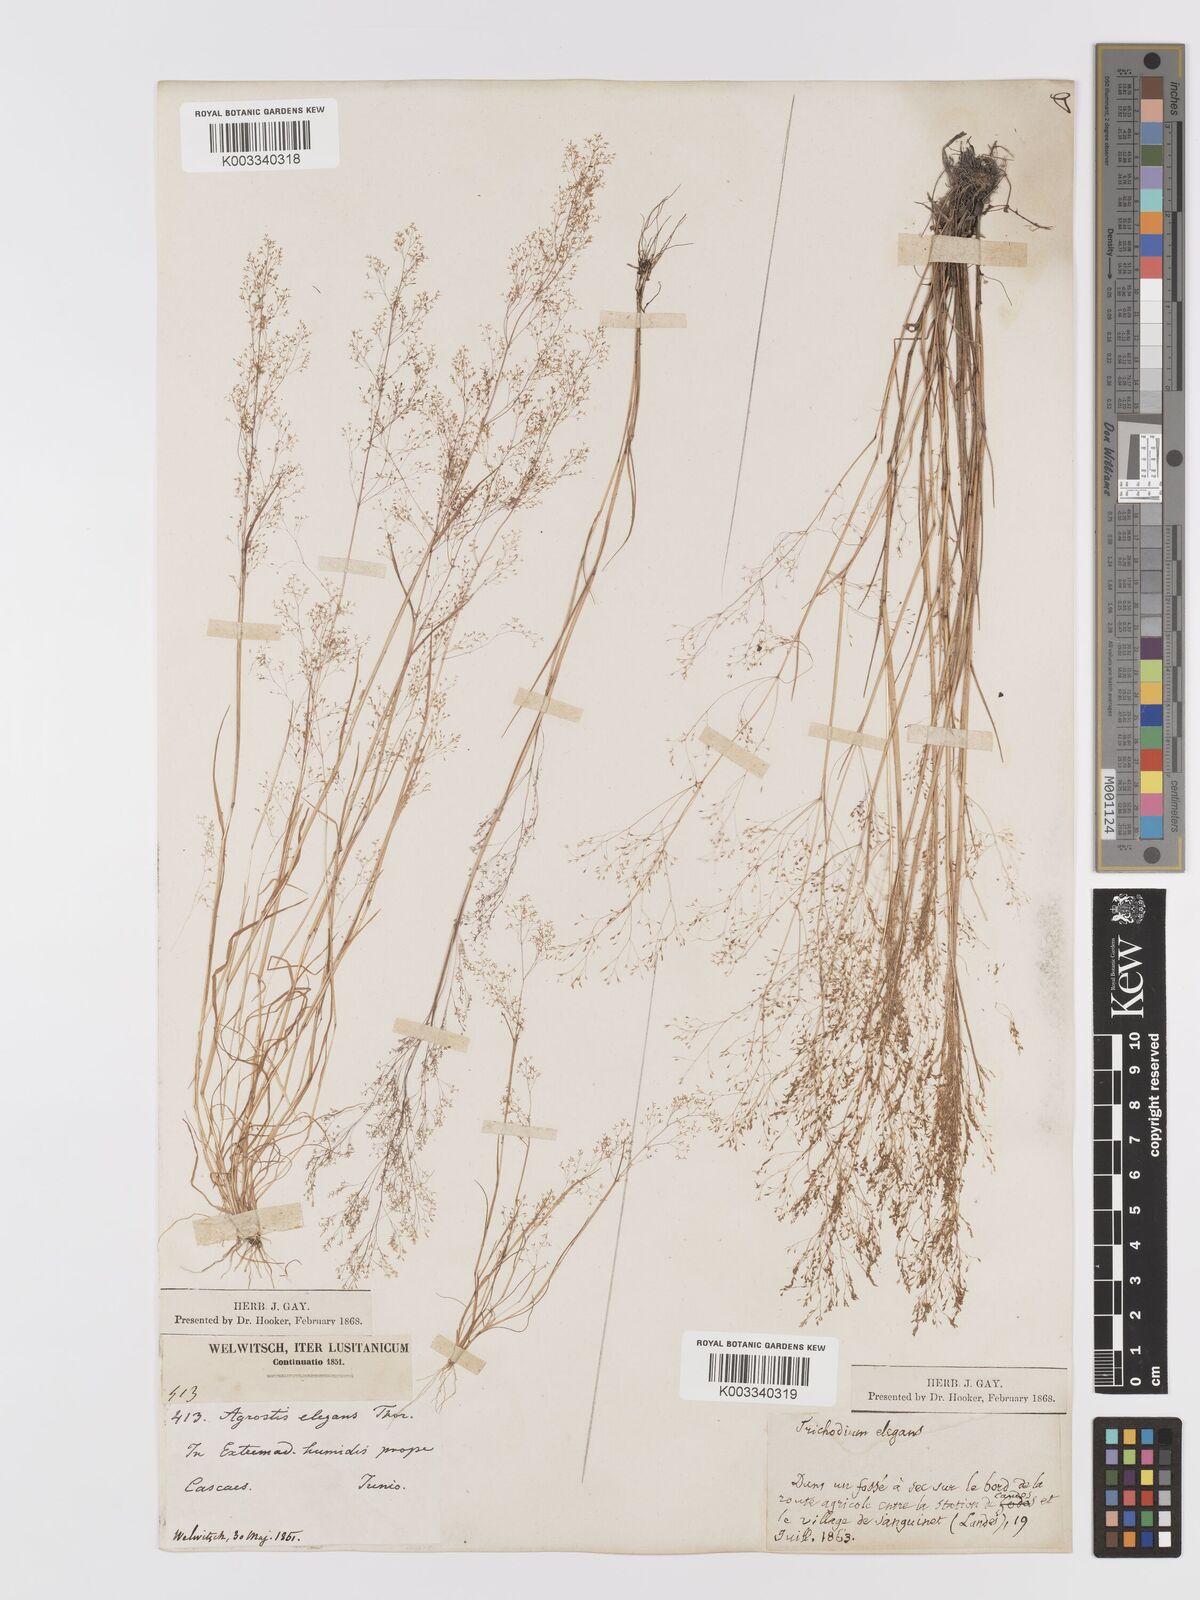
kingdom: Plantae
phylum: Tracheophyta
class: Liliopsida
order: Poales
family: Poaceae
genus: Agrostis
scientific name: Agrostis tenerrima
